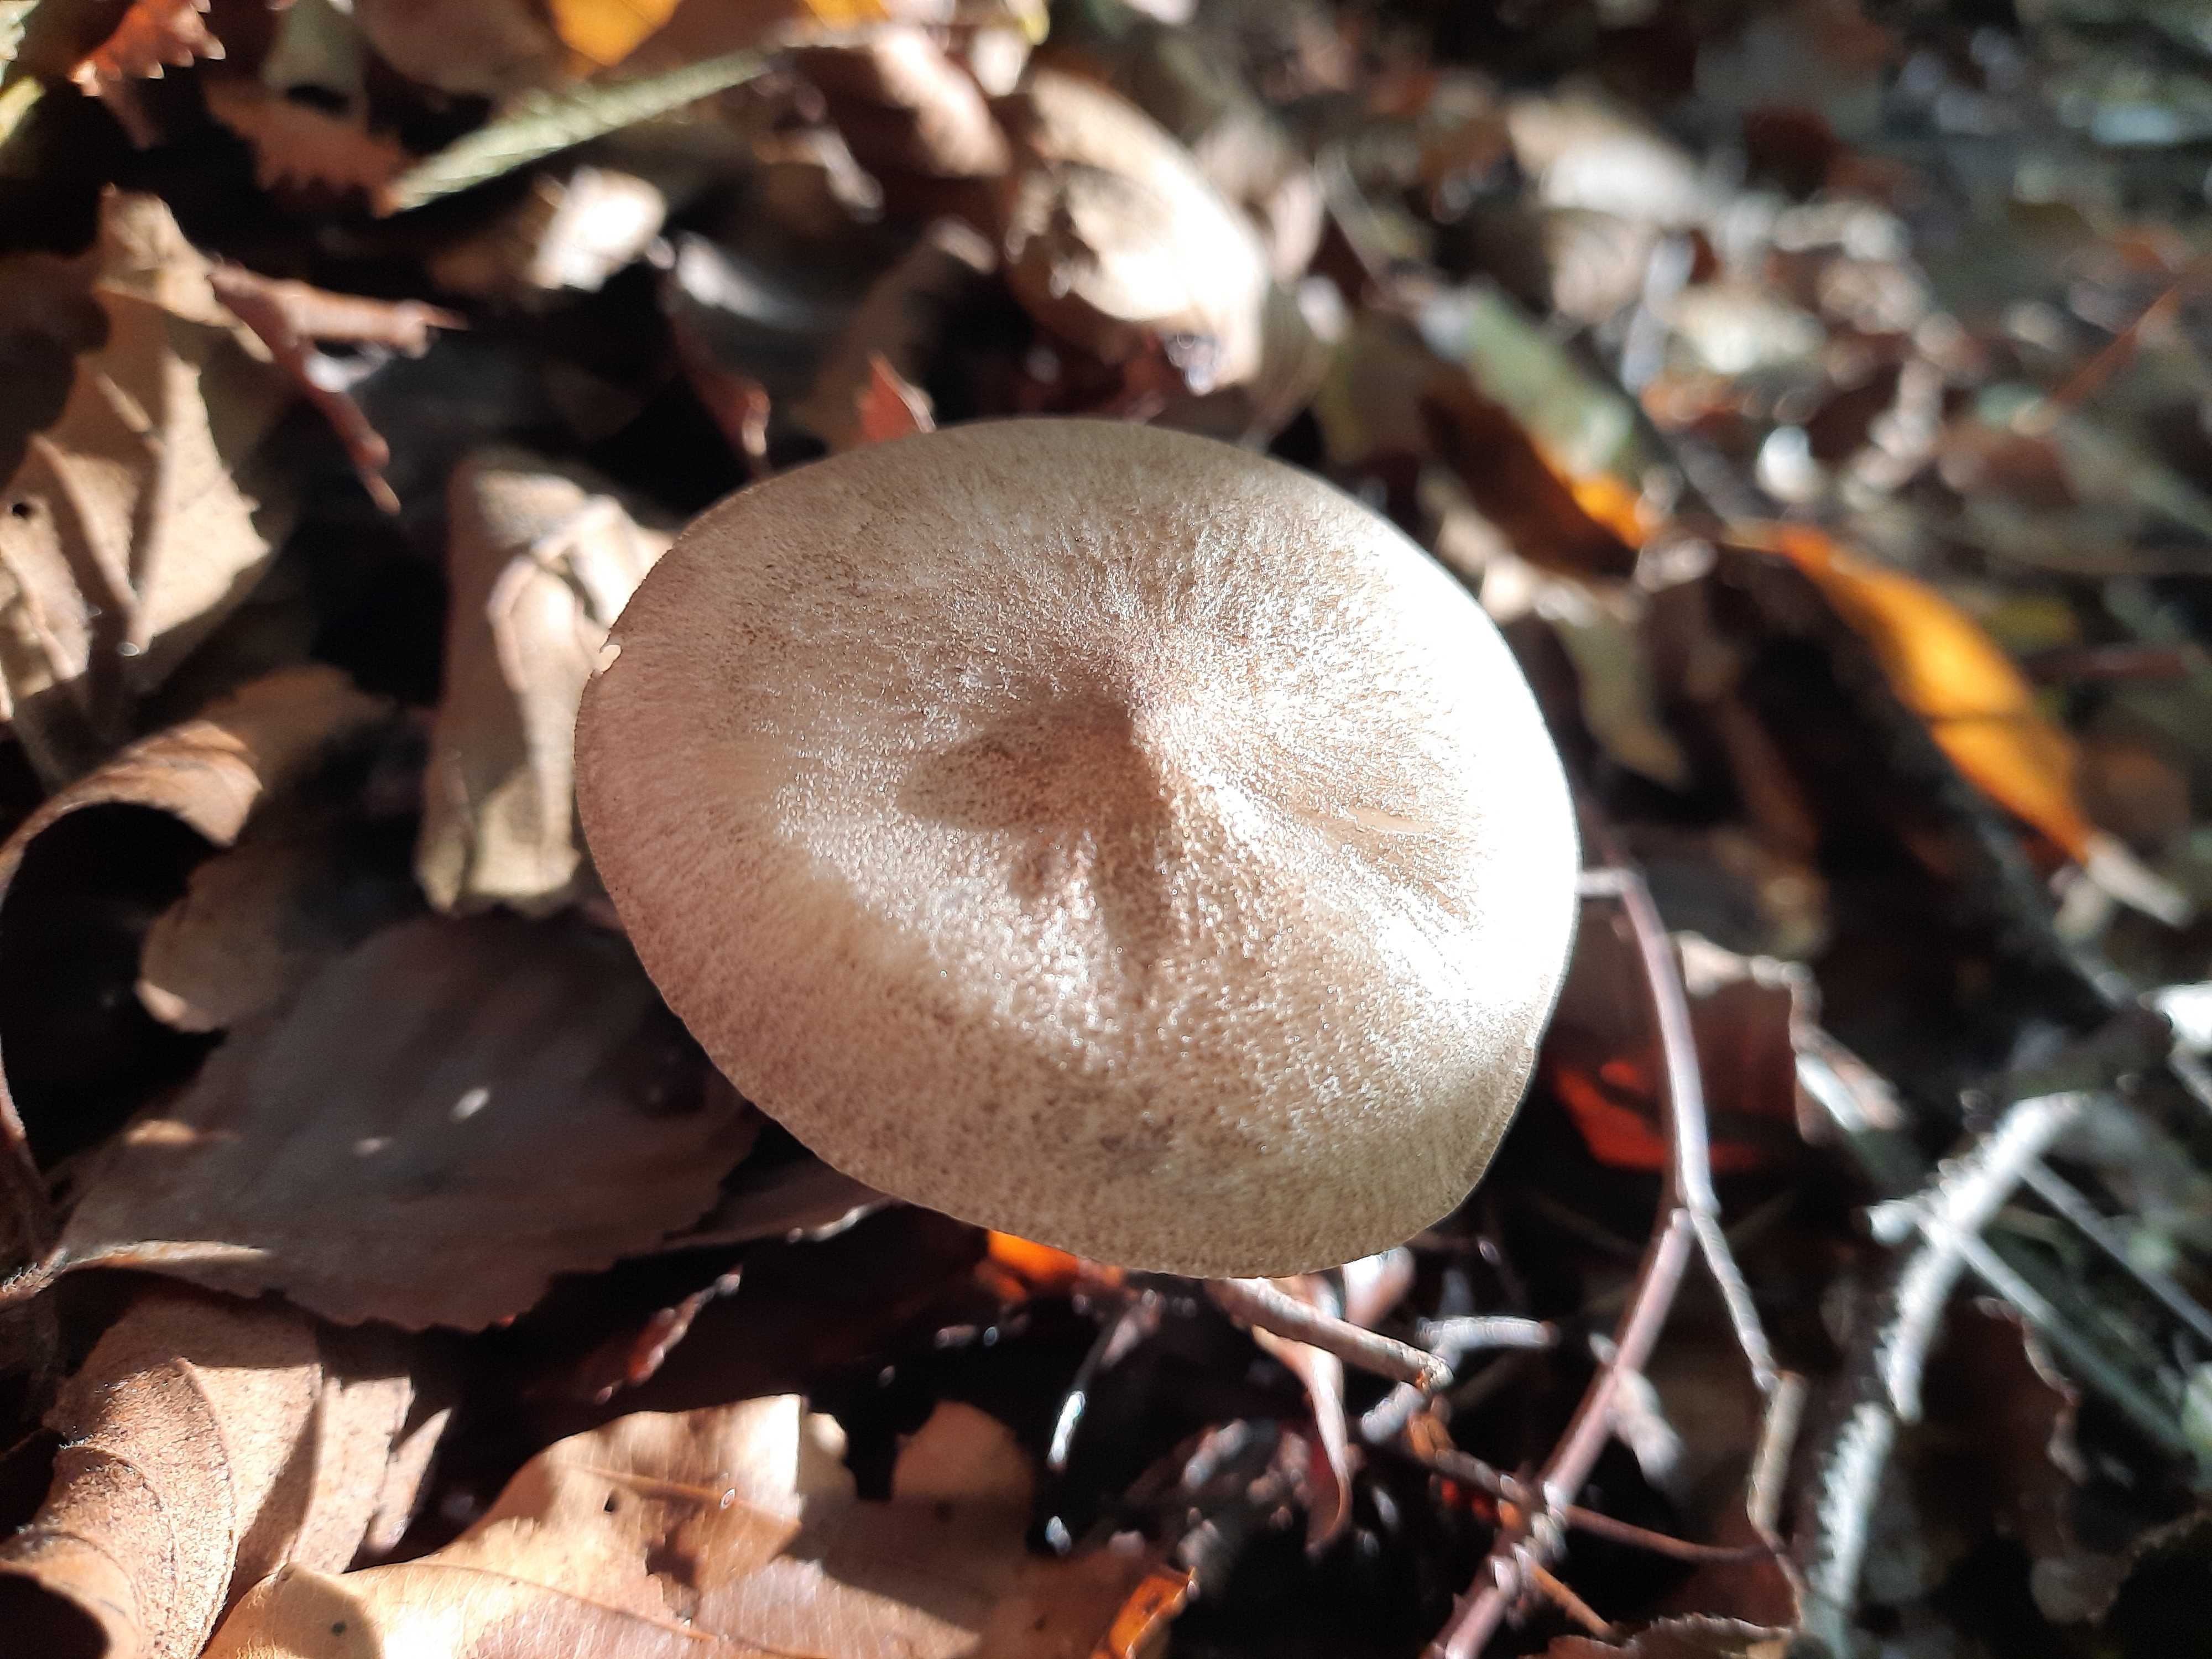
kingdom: Fungi
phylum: Basidiomycota
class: Agaricomycetes
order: Agaricales
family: Tricholomataceae
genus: Megacollybia
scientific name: Megacollybia platyphylla
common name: bredbladet væbnerhat
